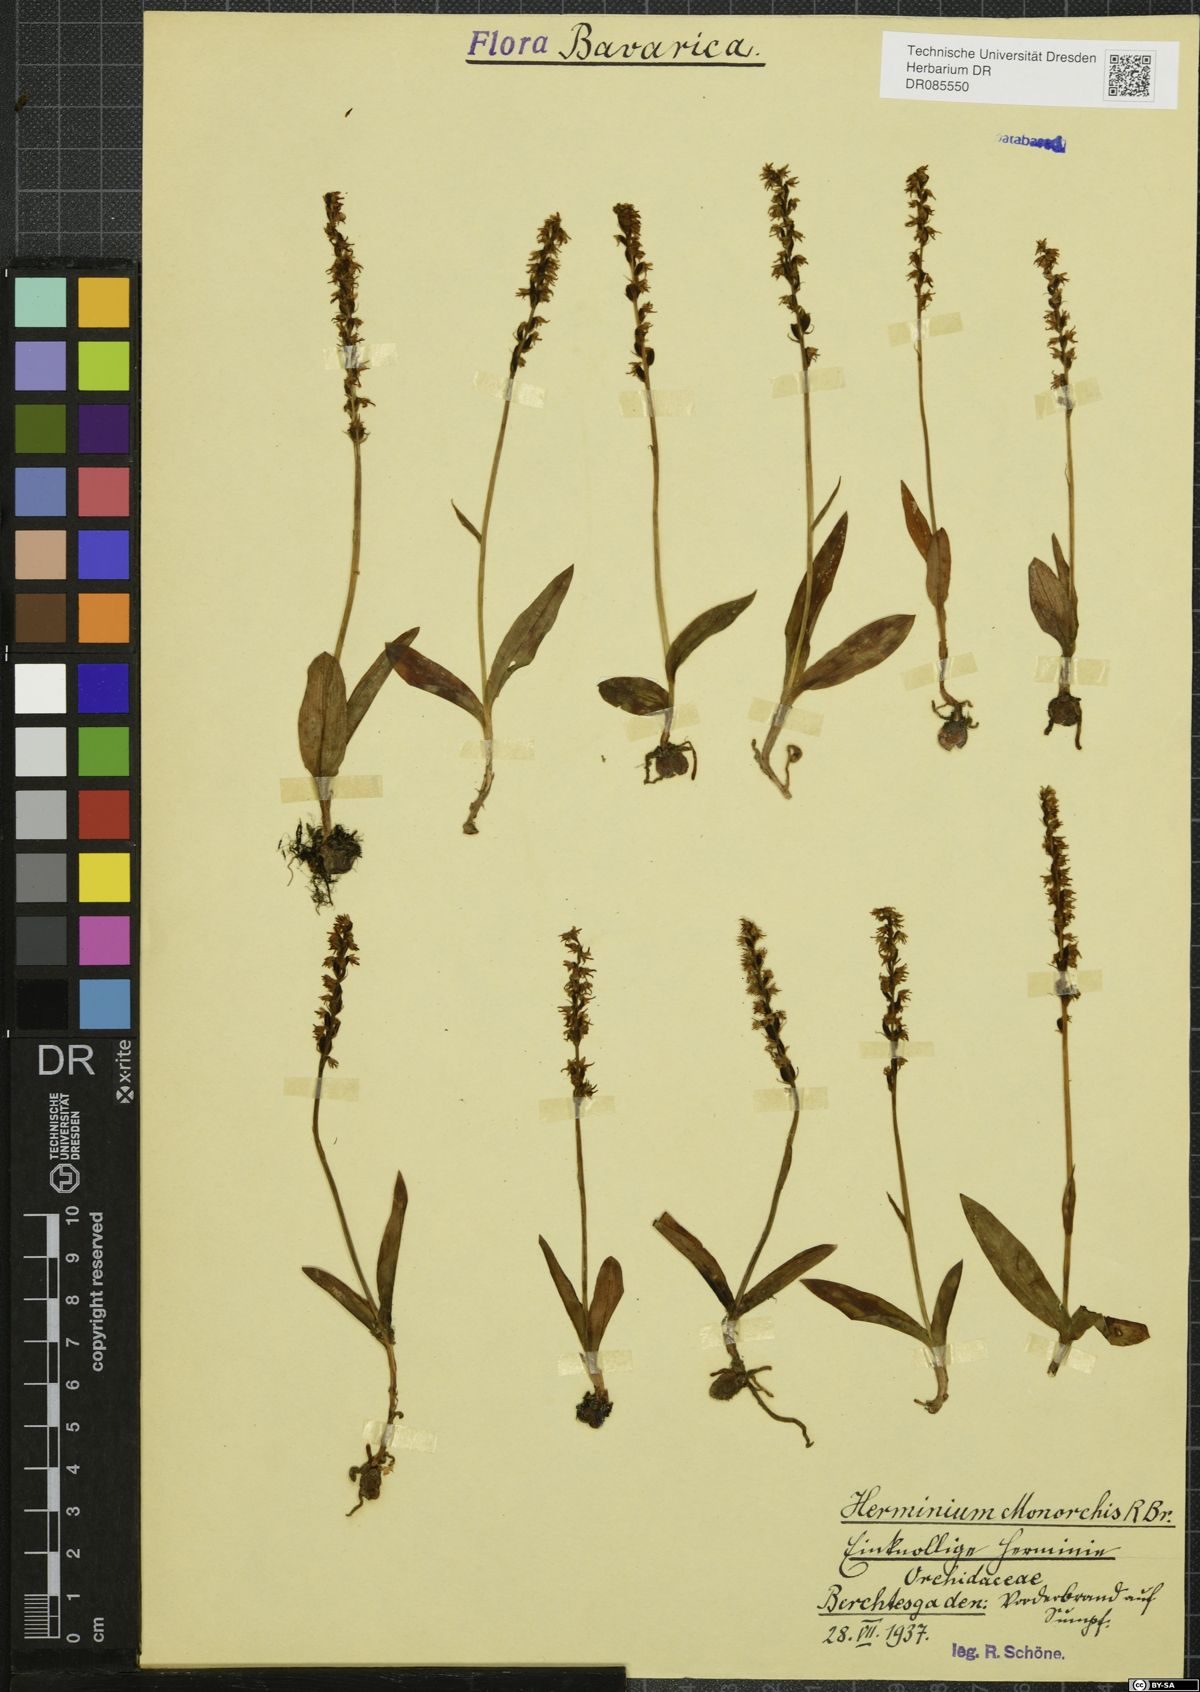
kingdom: Plantae
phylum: Tracheophyta
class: Liliopsida
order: Asparagales
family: Orchidaceae
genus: Herminium
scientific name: Herminium monorchis
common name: Musk orchid
